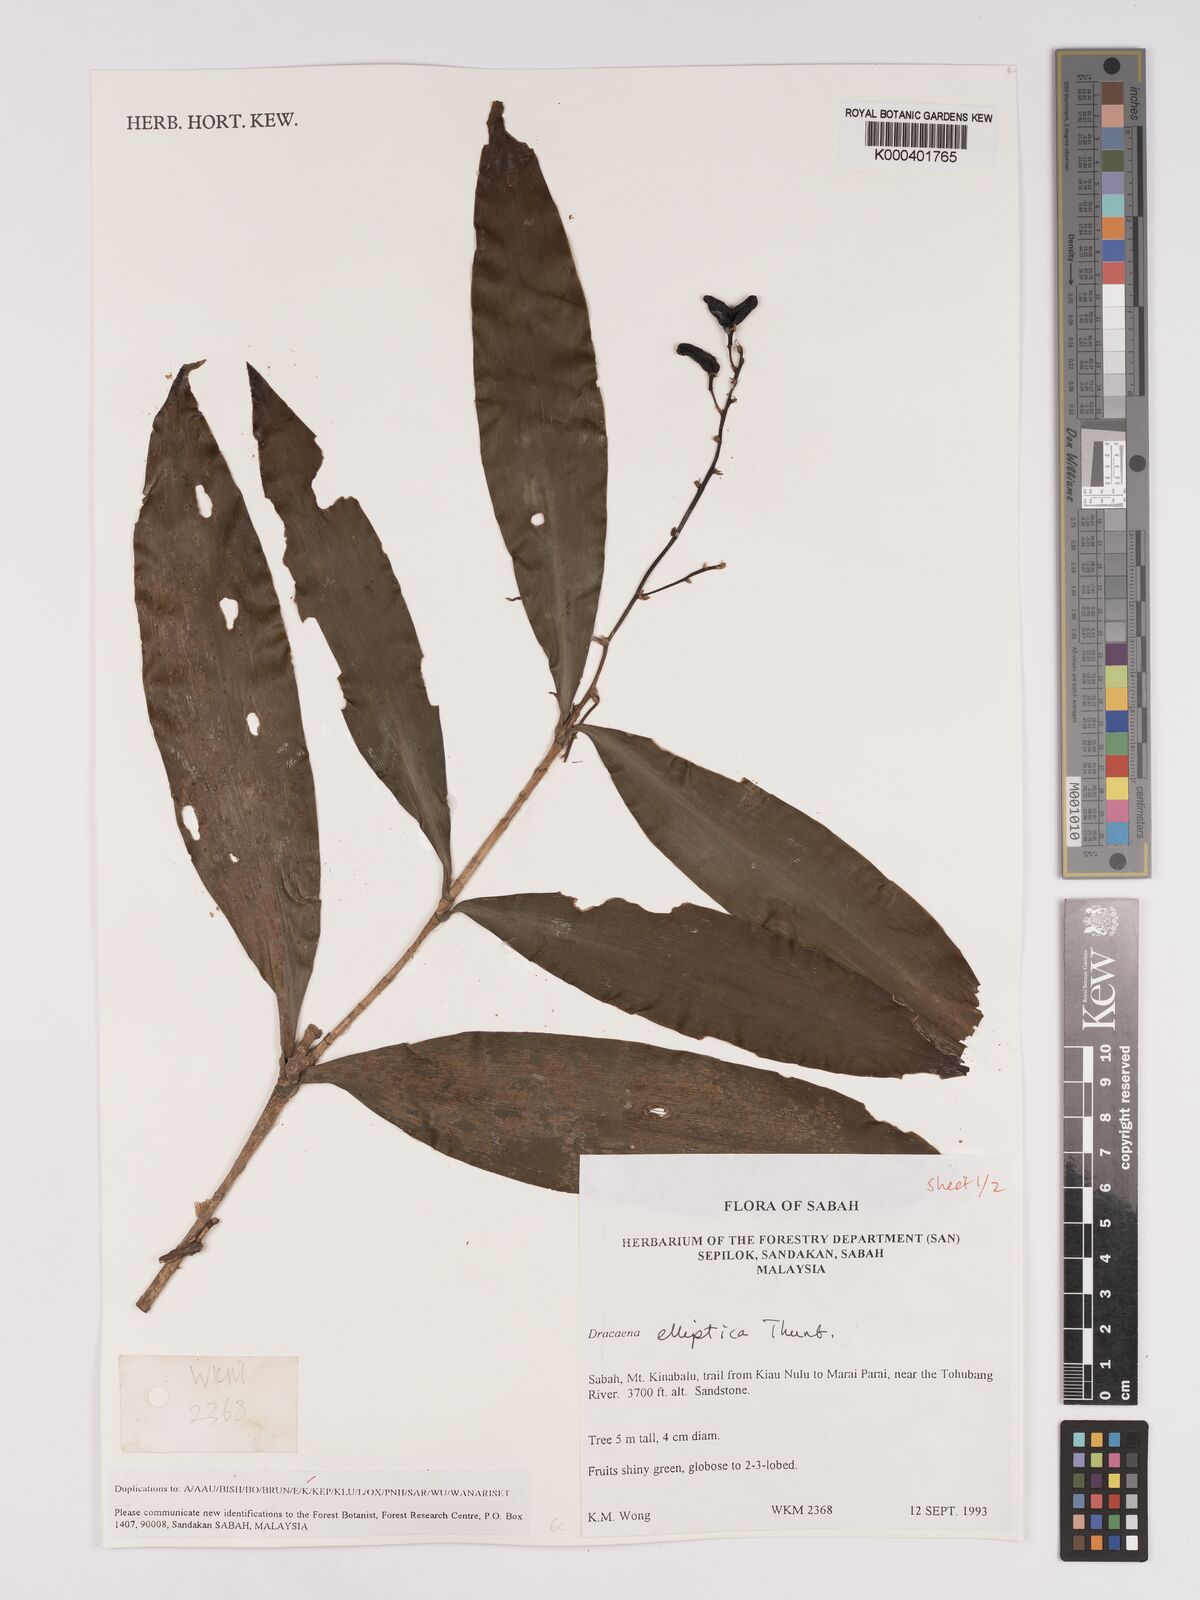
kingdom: Plantae
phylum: Tracheophyta
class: Liliopsida
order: Asparagales
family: Asparagaceae
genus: Dracaena
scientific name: Dracaena elliptica
